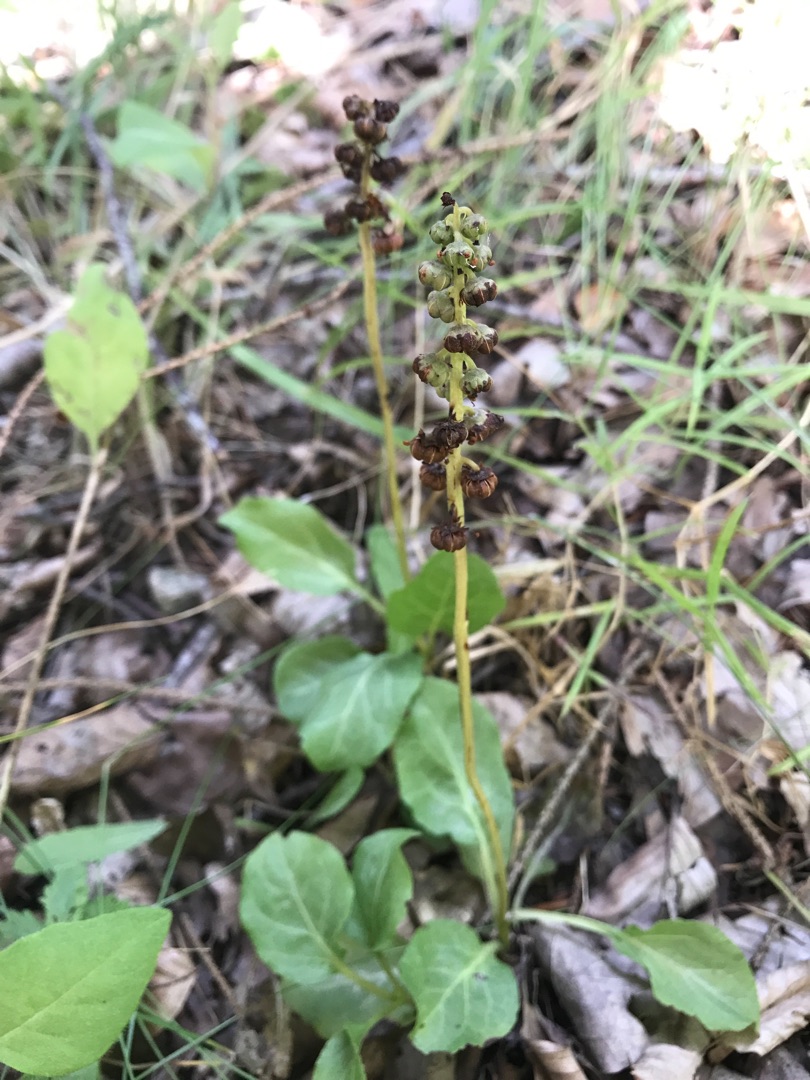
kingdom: Plantae
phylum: Tracheophyta
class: Magnoliopsida
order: Ericales
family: Ericaceae
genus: Pyrola
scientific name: Pyrola minor
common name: Liden vintergrøn
